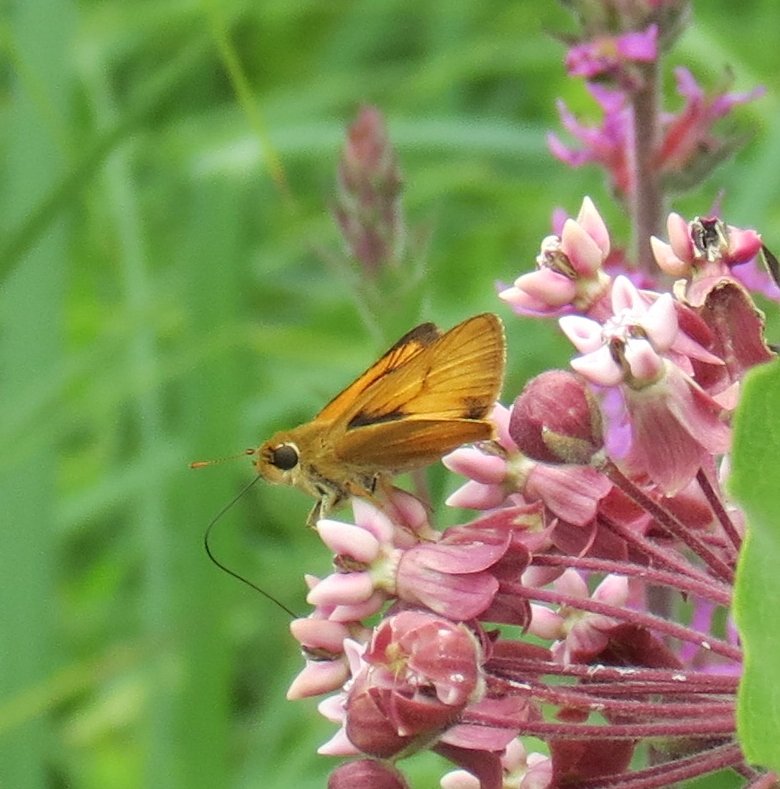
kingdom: Animalia
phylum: Arthropoda
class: Insecta
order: Lepidoptera
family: Hesperiidae
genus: Atrytone
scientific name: Atrytone delaware
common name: Delaware Skipper
